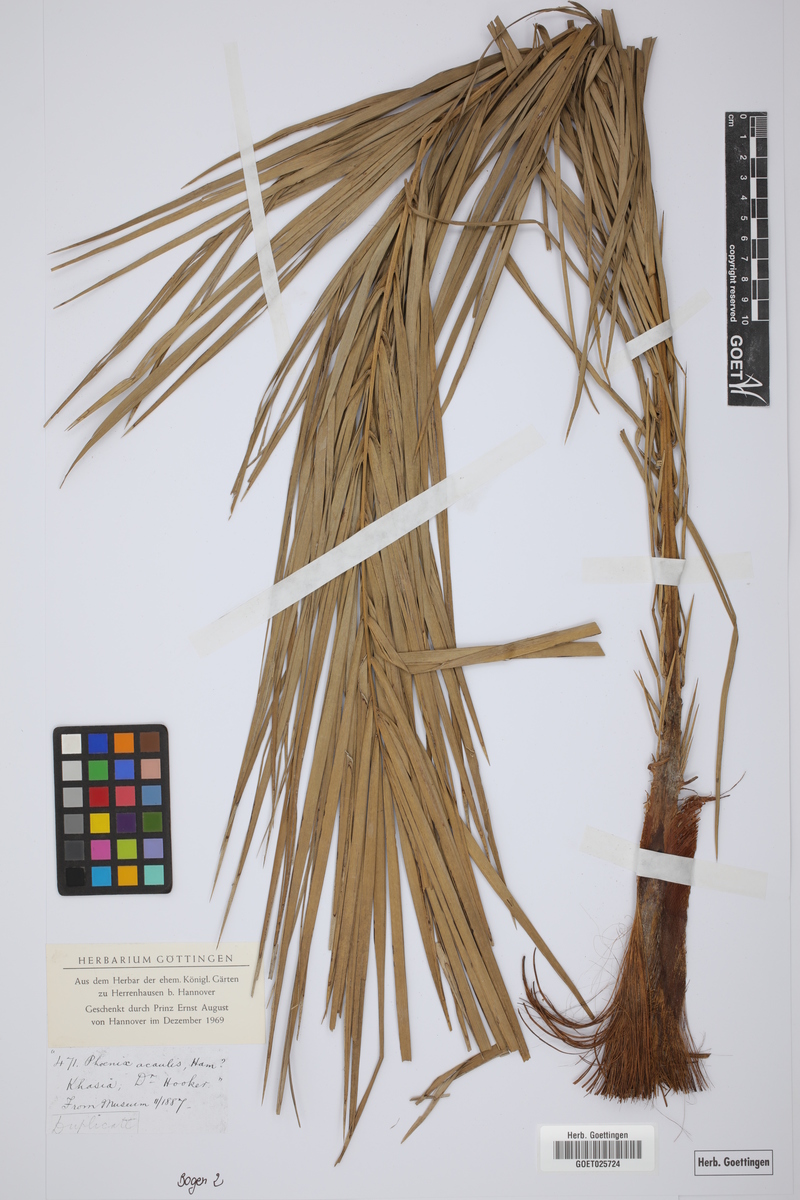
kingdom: Plantae
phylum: Tracheophyta
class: Liliopsida
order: Arecales
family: Arecaceae
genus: Phoenix
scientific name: Phoenix acaulis
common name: Stemless date palm
